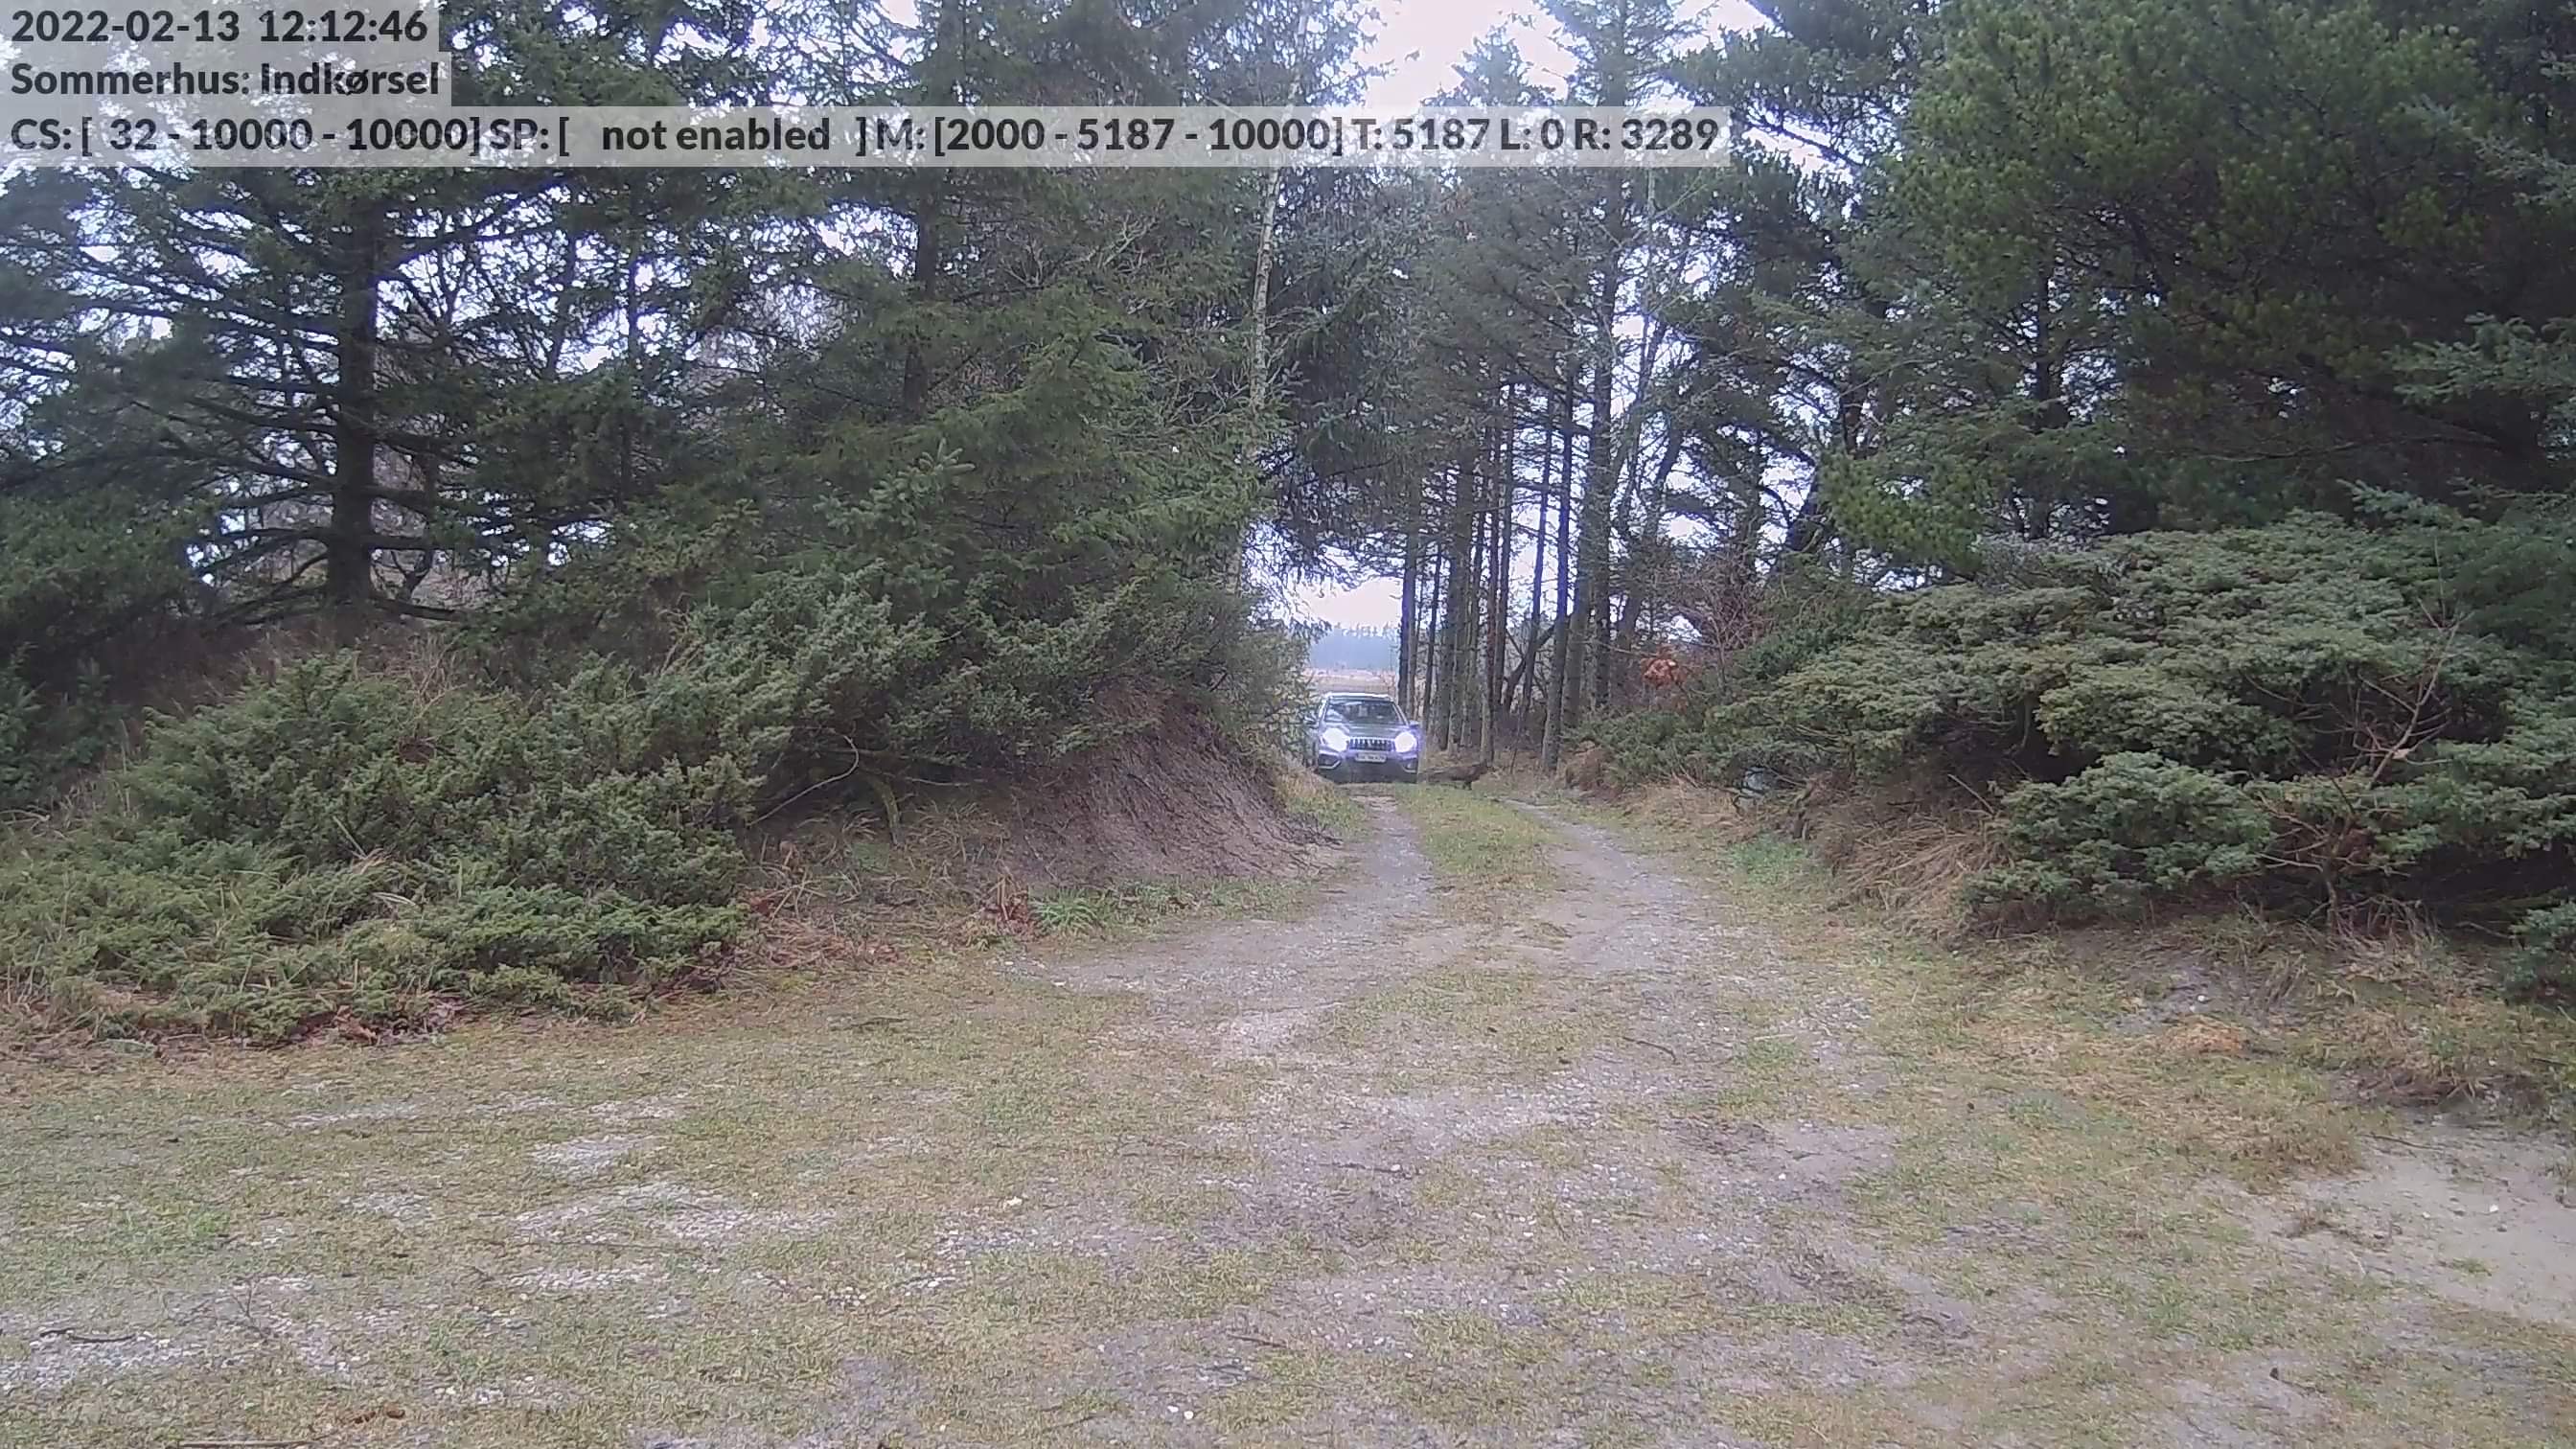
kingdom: Animalia
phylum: Chordata
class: Mammalia
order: Carnivora
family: Canidae
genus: Nyctereutes
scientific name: Nyctereutes procyonoides
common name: Mårhund
